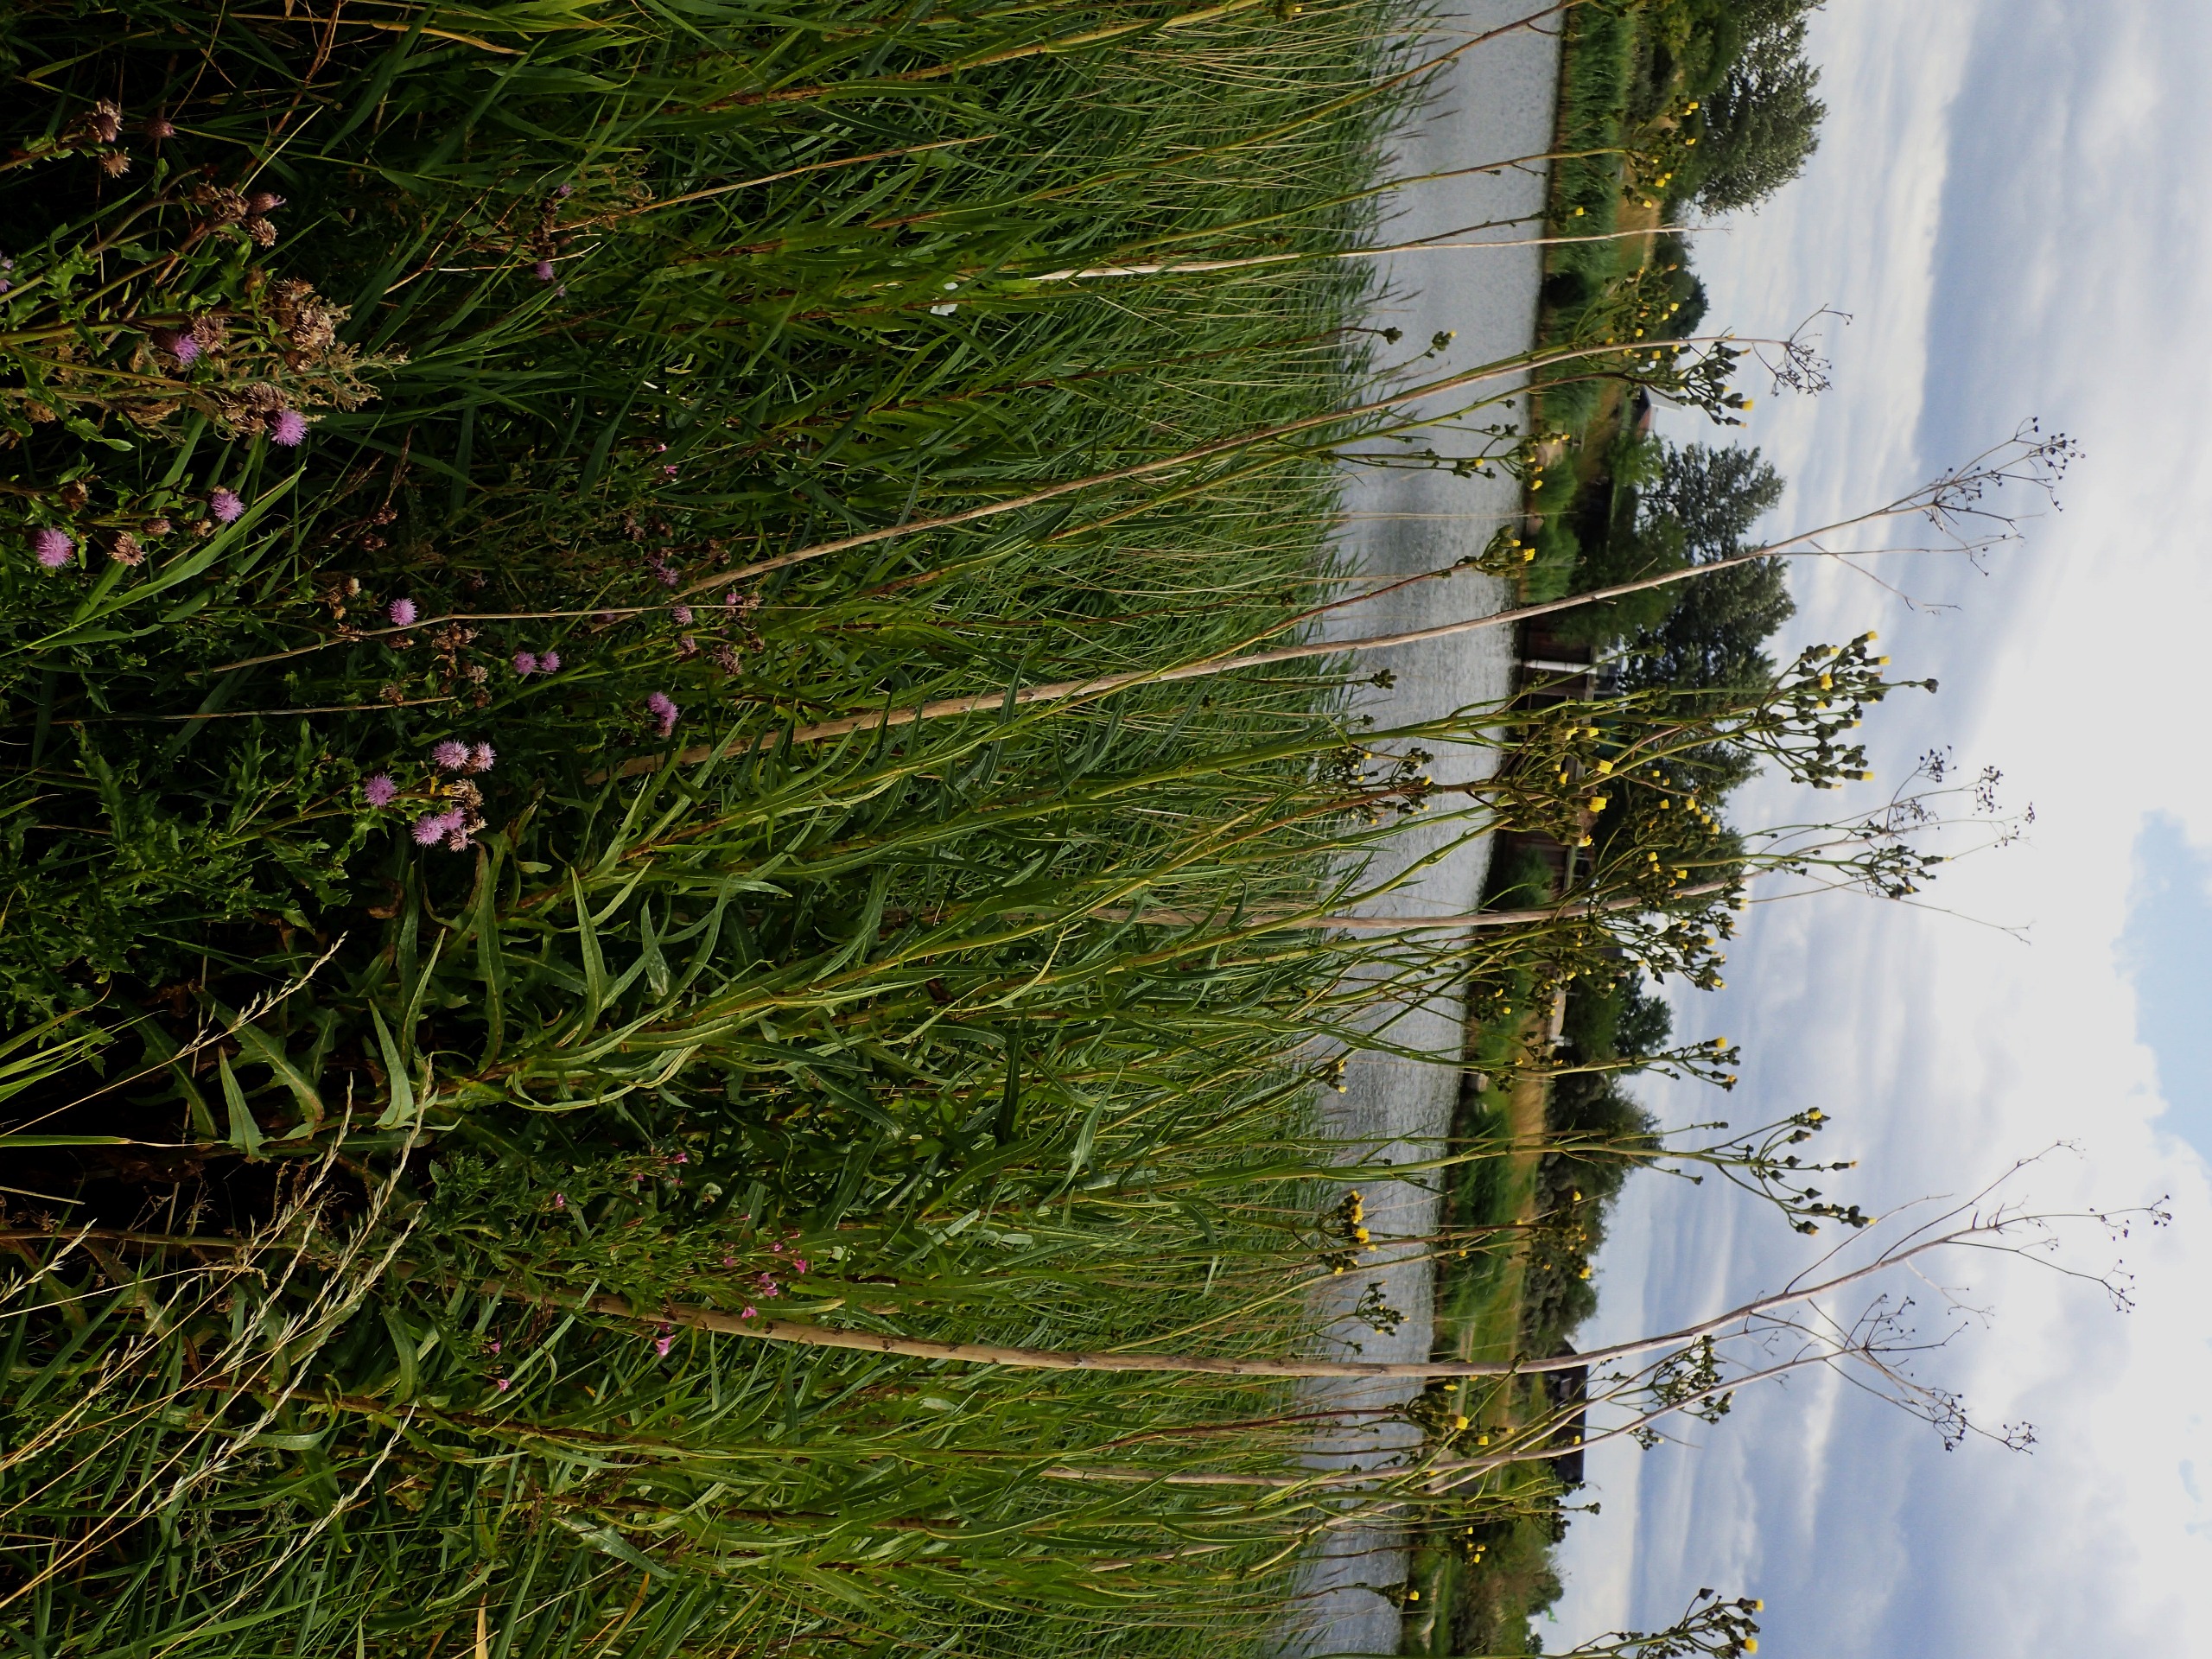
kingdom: Plantae
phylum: Tracheophyta
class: Magnoliopsida
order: Asterales
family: Asteraceae
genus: Sonchus
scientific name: Sonchus palustris
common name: Kær-svinemælk
